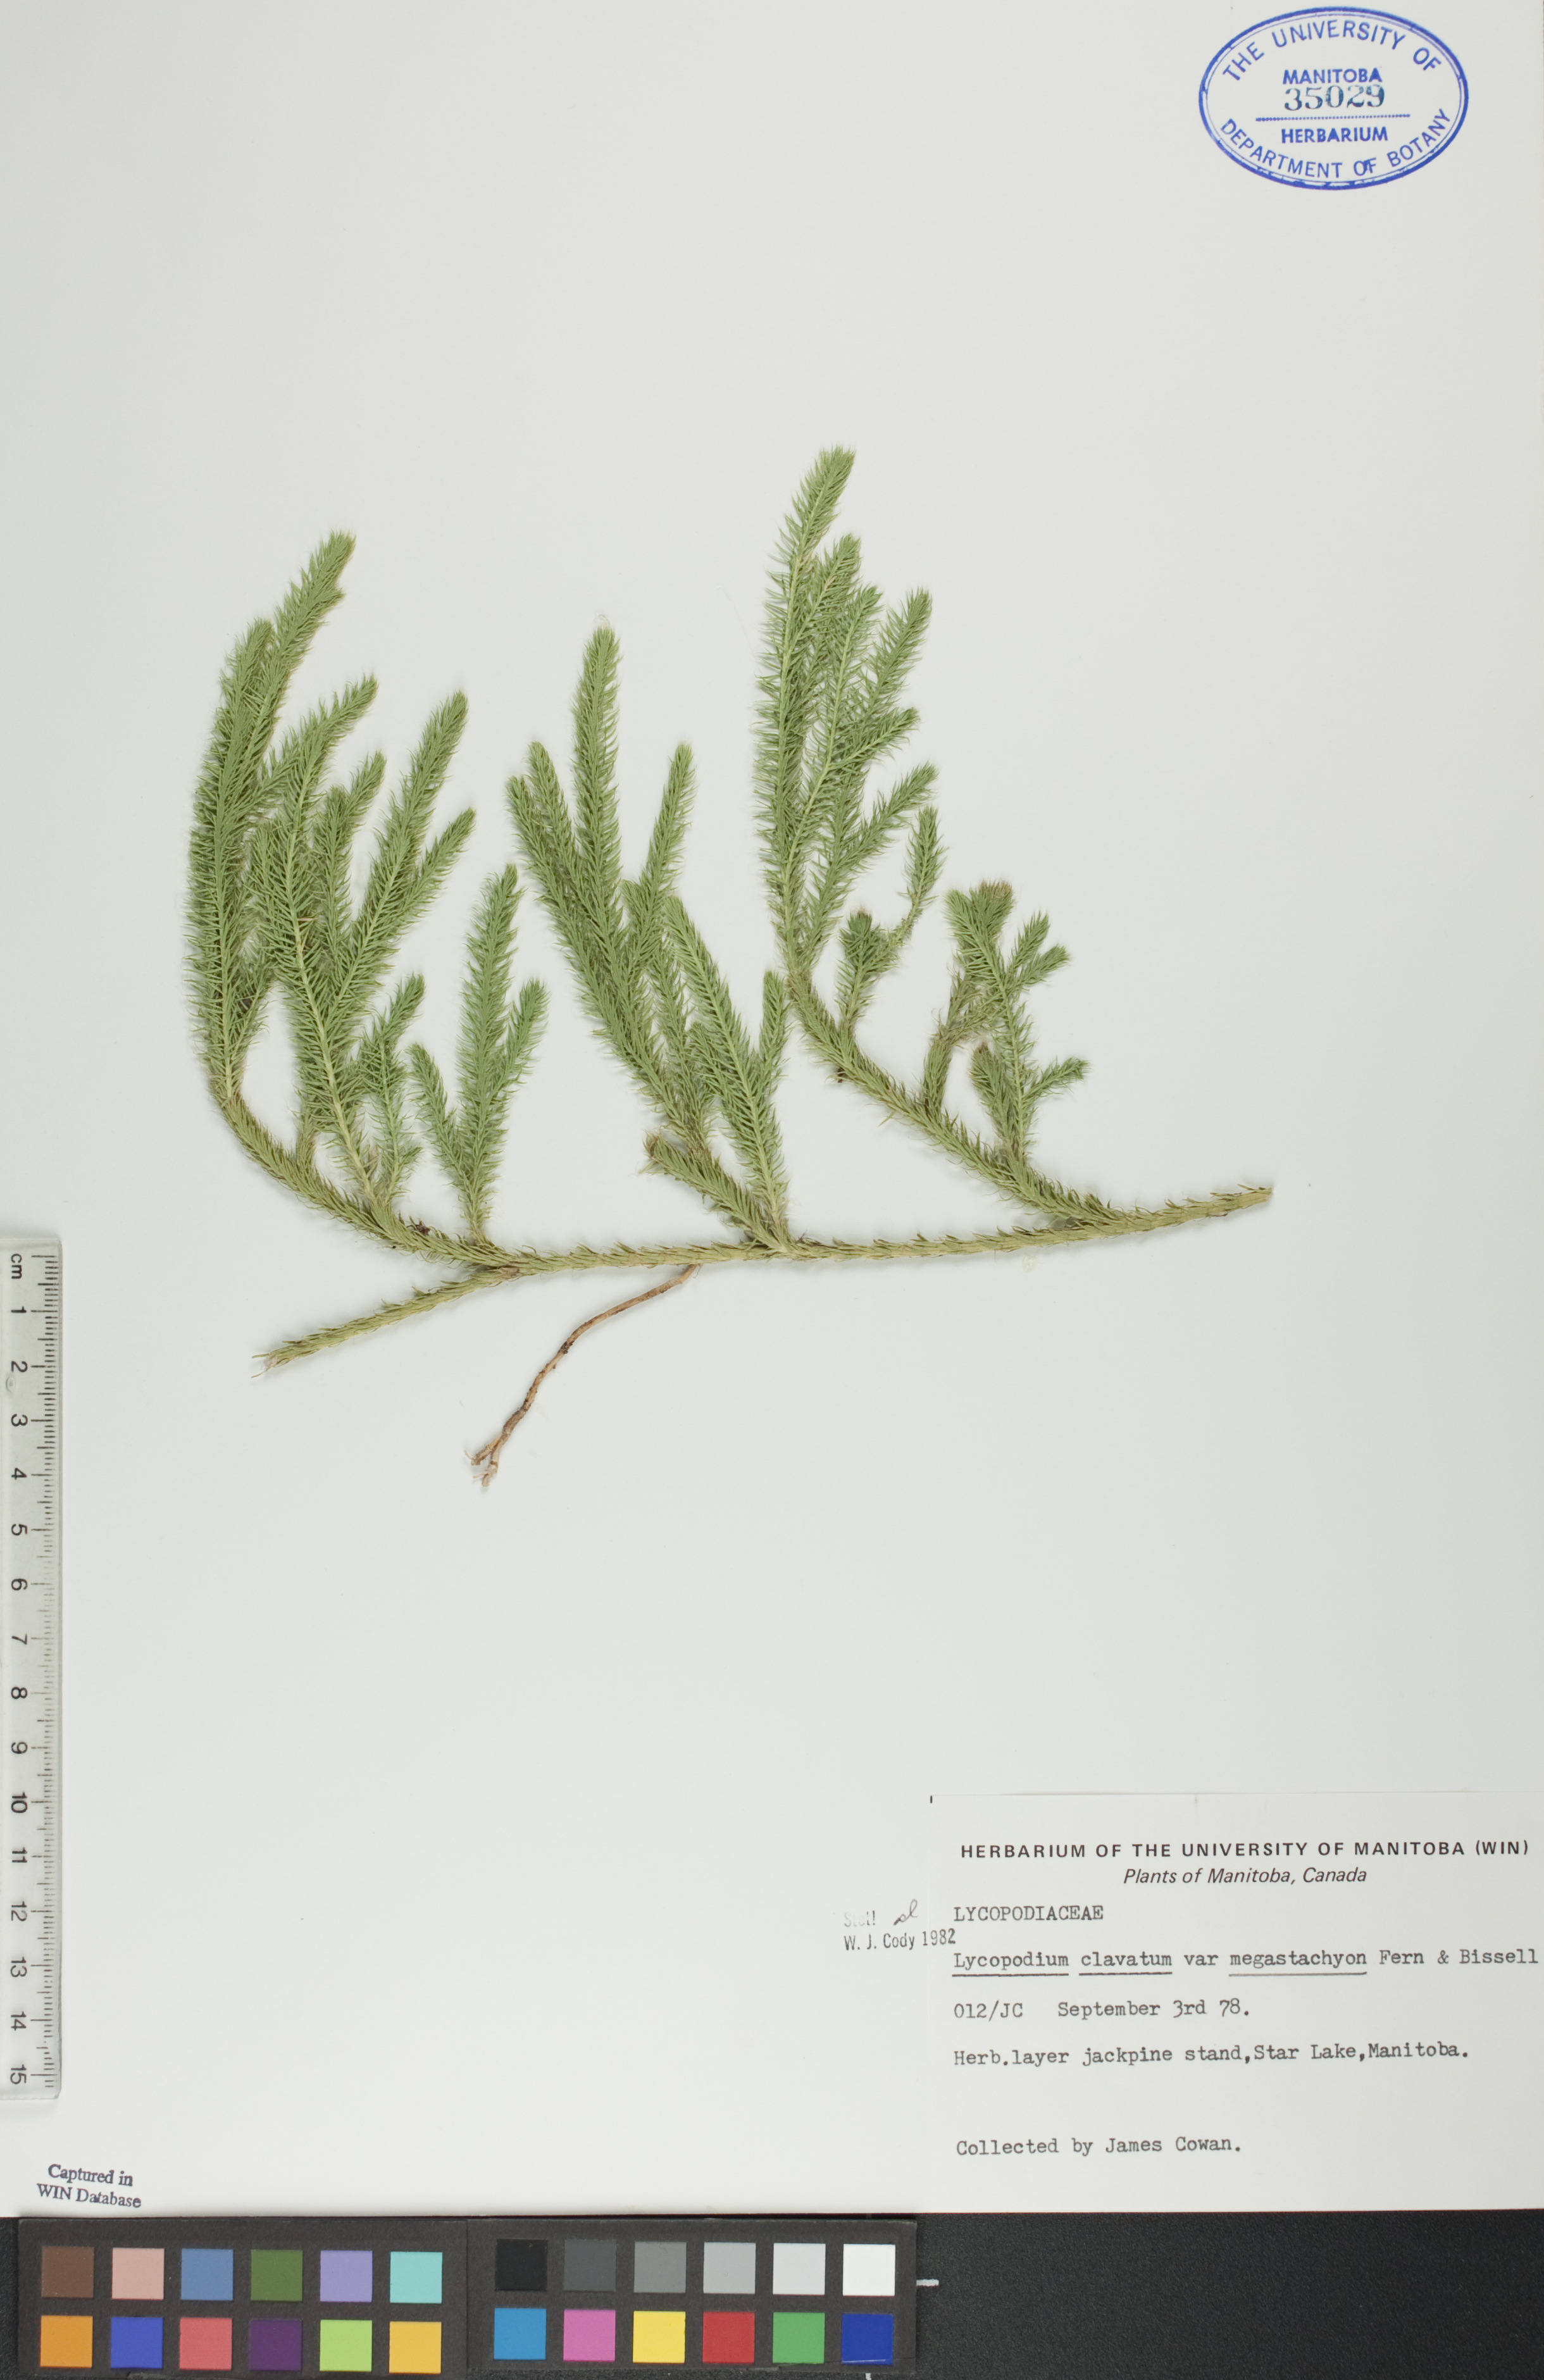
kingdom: Plantae
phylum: Tracheophyta
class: Lycopodiopsida
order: Lycopodiales
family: Lycopodiaceae
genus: Lycopodium
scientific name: Lycopodium lagopus
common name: One-cone clubmoss
